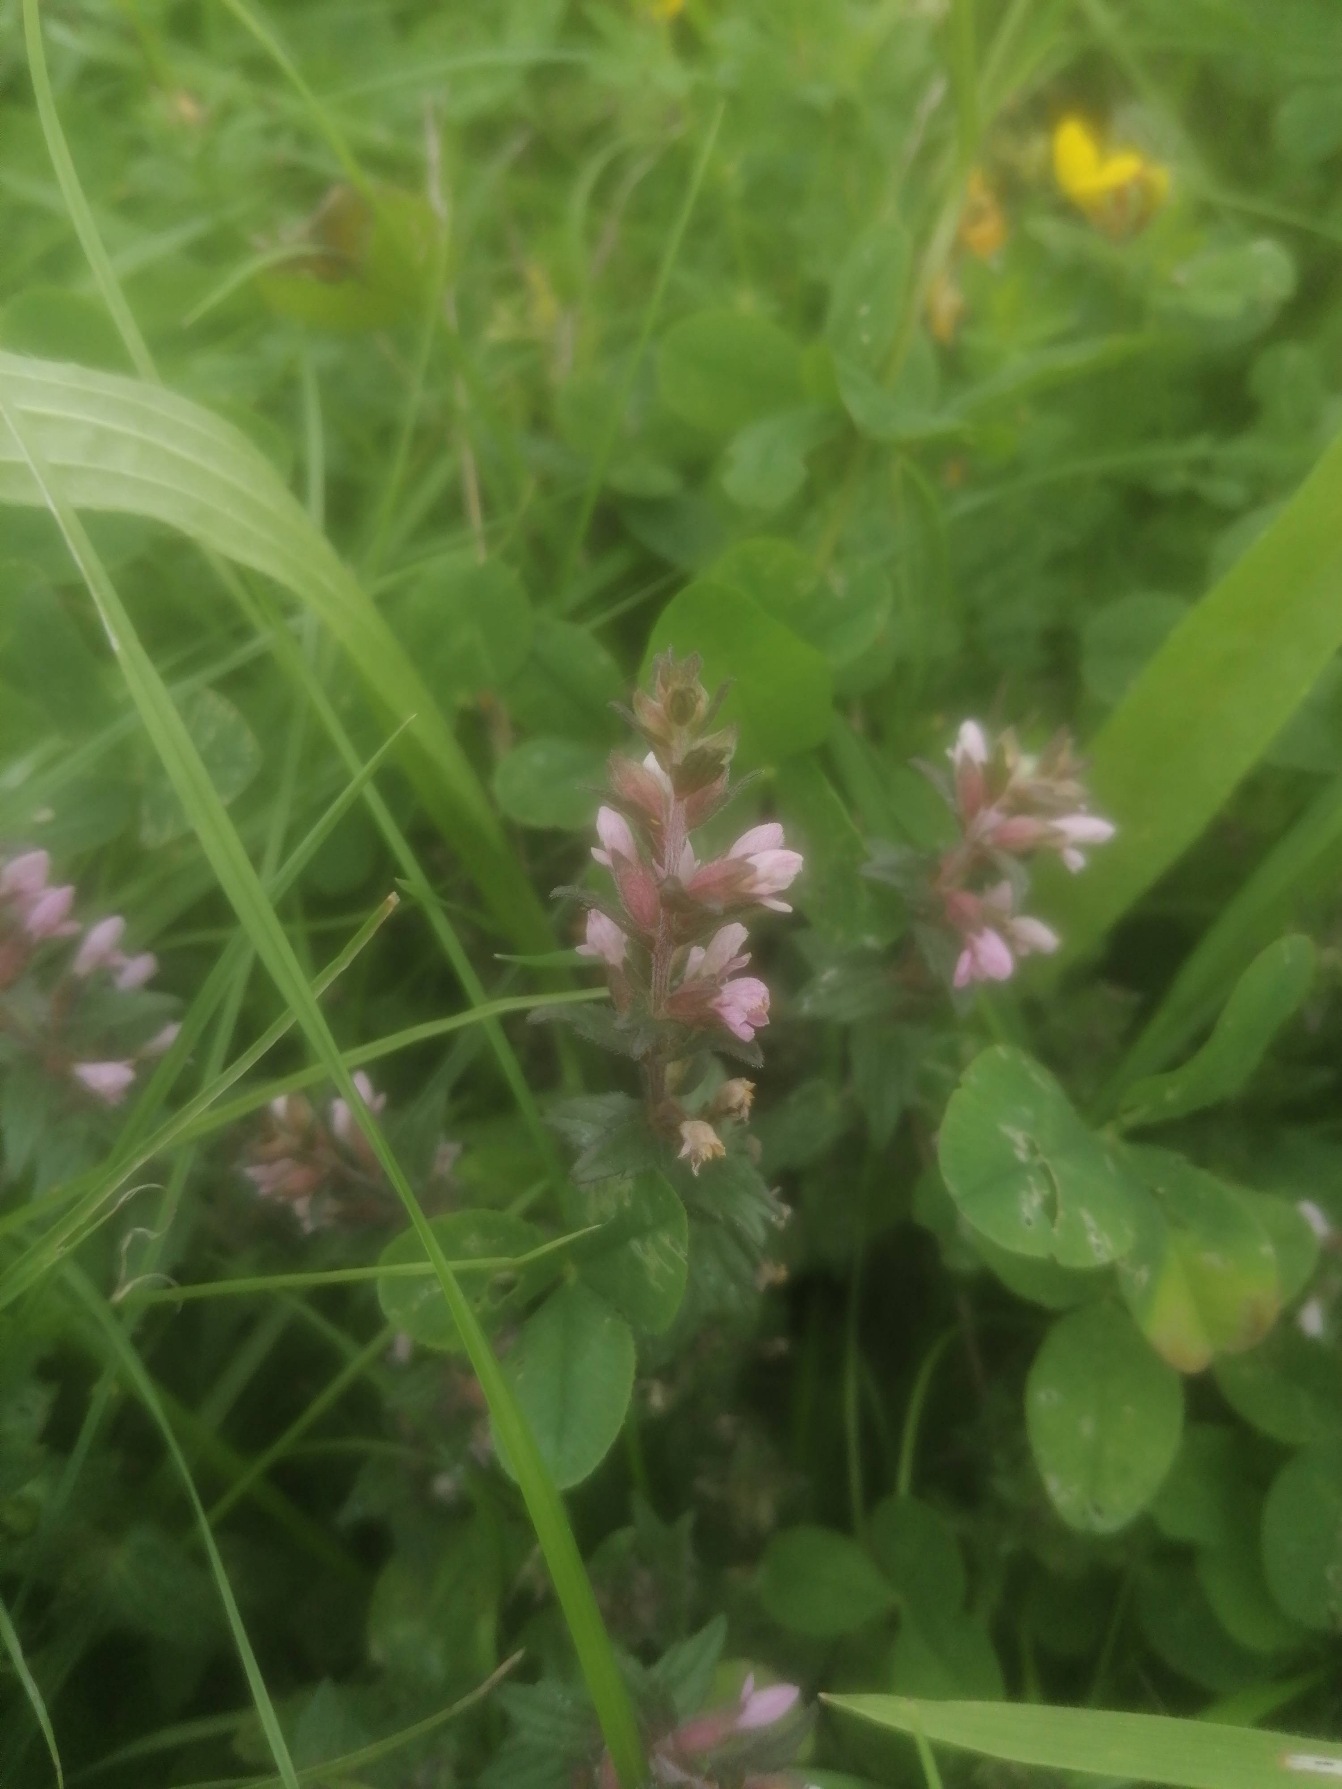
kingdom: Plantae
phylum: Tracheophyta
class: Magnoliopsida
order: Lamiales
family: Orobanchaceae
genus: Odontites
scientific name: Odontites
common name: Rødtopslægten
